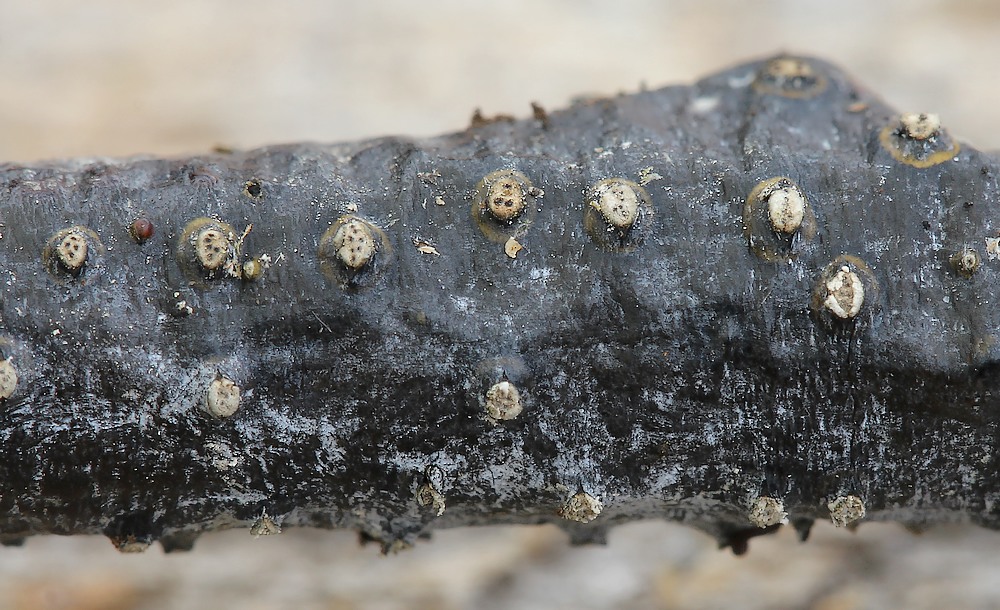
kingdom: Fungi
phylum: Ascomycota
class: Sordariomycetes
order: Diaporthales
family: Valsaceae
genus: Cytospora
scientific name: Cytospora
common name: kulknippe
